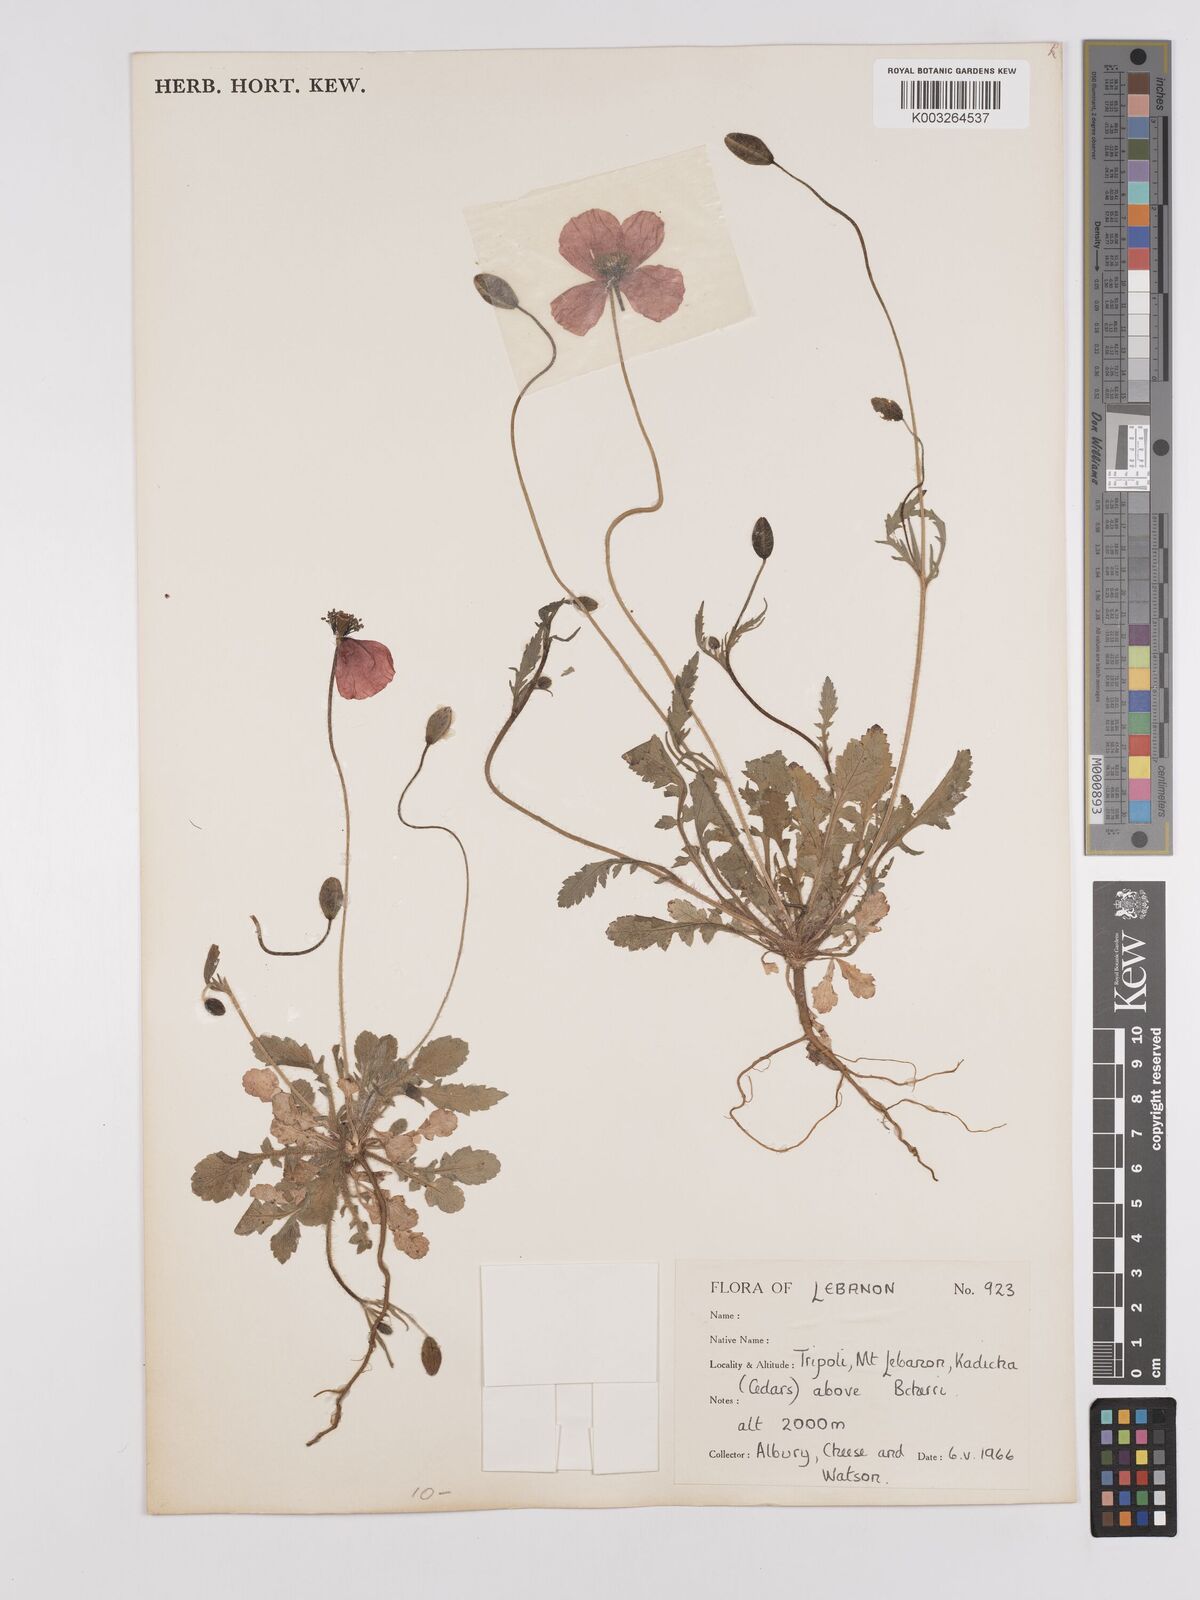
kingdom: Plantae
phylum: Tracheophyta
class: Magnoliopsida
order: Ranunculales
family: Papaveraceae
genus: Papaver
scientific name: Papaver
